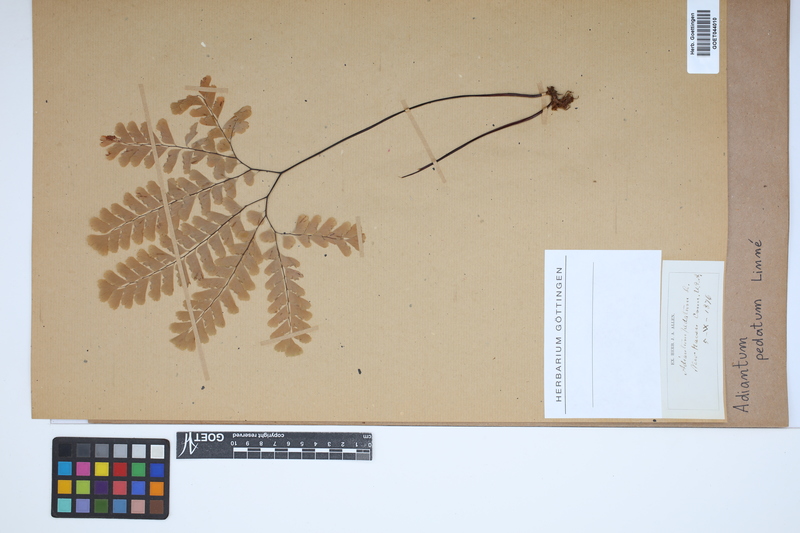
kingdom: Plantae
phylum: Tracheophyta
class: Polypodiopsida
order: Polypodiales
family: Pteridaceae
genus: Adiantum
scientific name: Adiantum pedatum
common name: Five-finger fern
